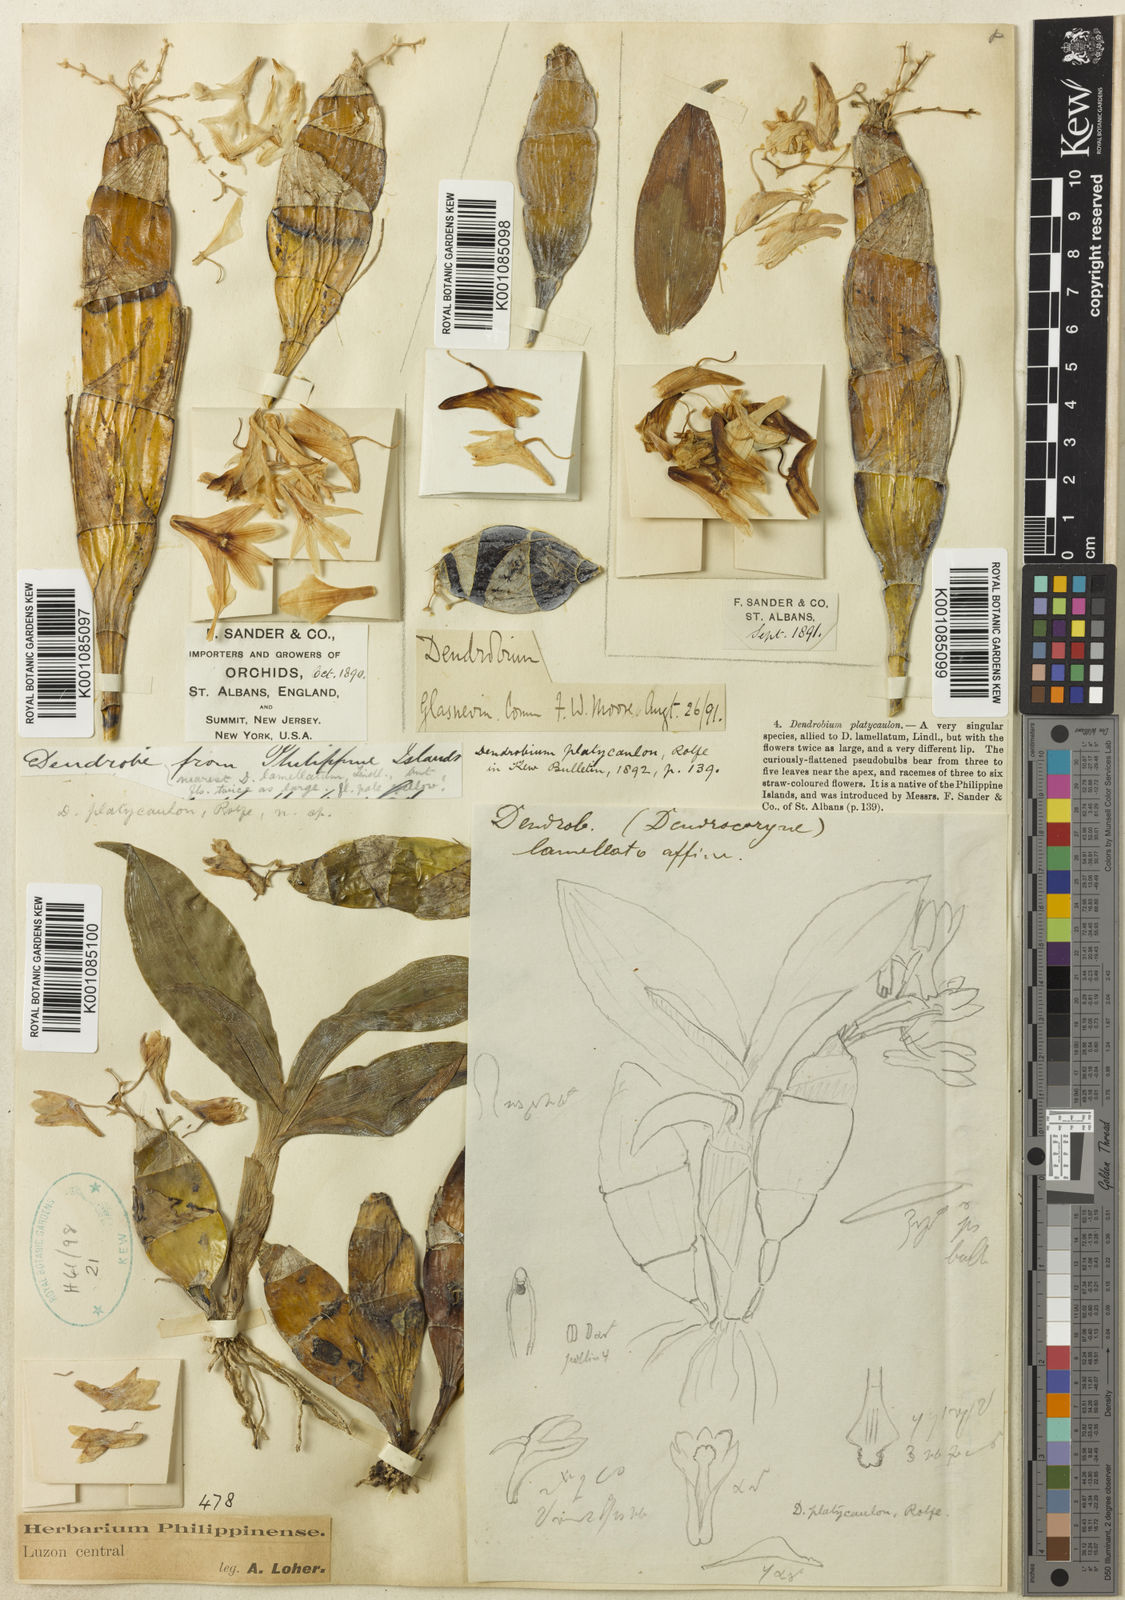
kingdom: Plantae
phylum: Tracheophyta
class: Liliopsida
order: Asparagales
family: Orchidaceae
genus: Dendrobium
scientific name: Dendrobium platycaulon
